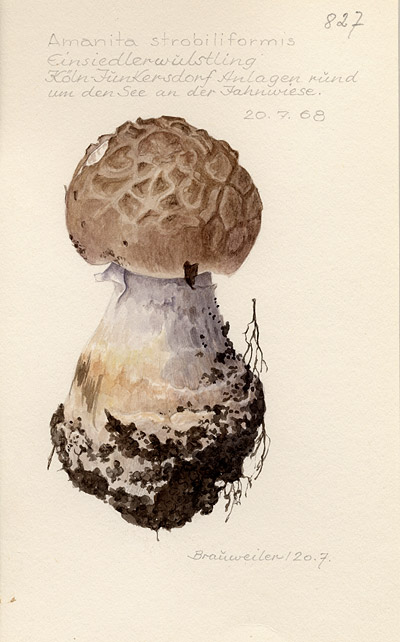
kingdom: Fungi
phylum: Basidiomycota
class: Agaricomycetes
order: Agaricales
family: Amanitaceae
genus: Amanita
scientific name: Amanita
